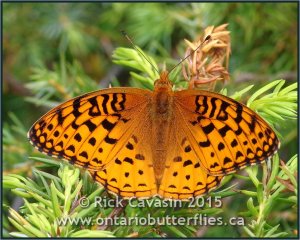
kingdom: Animalia
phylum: Arthropoda
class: Insecta
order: Lepidoptera
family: Nymphalidae
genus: Speyeria
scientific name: Speyeria aphrodite
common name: Aphrodite Fritillary
